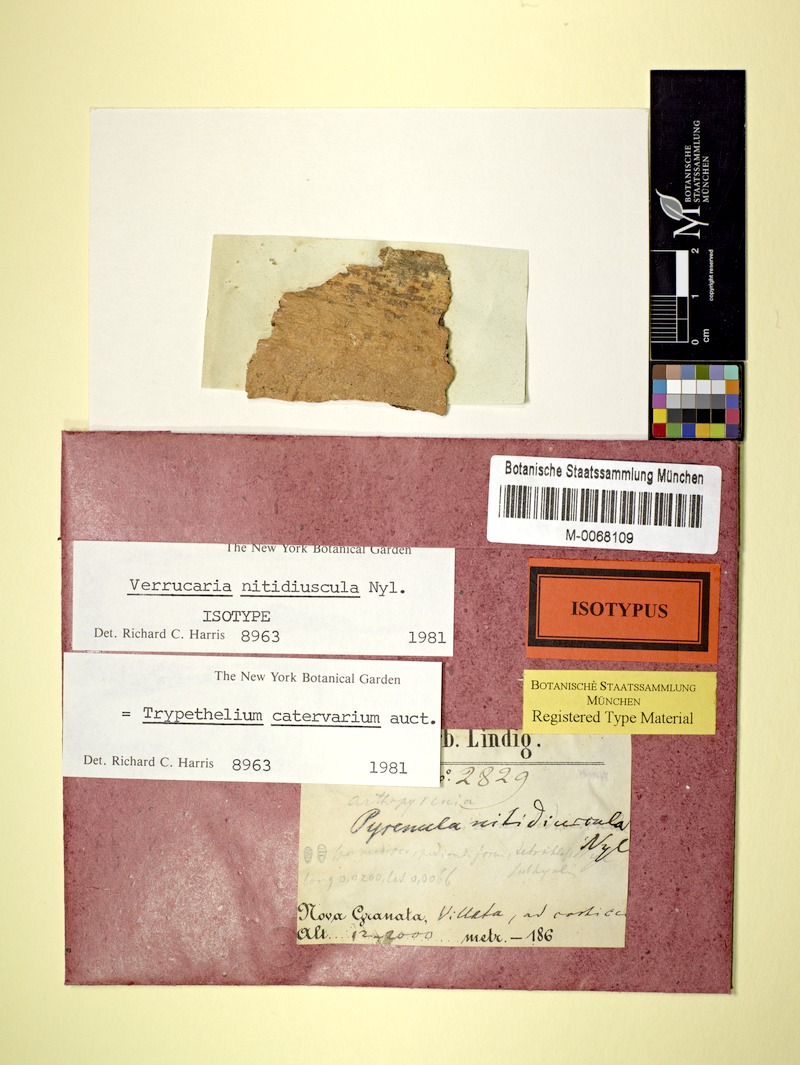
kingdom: Fungi
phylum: Ascomycota
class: Dothideomycetes
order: Trypetheliales
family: Trypetheliaceae
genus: Astrothelium
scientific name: Astrothelium nitidiusculum
